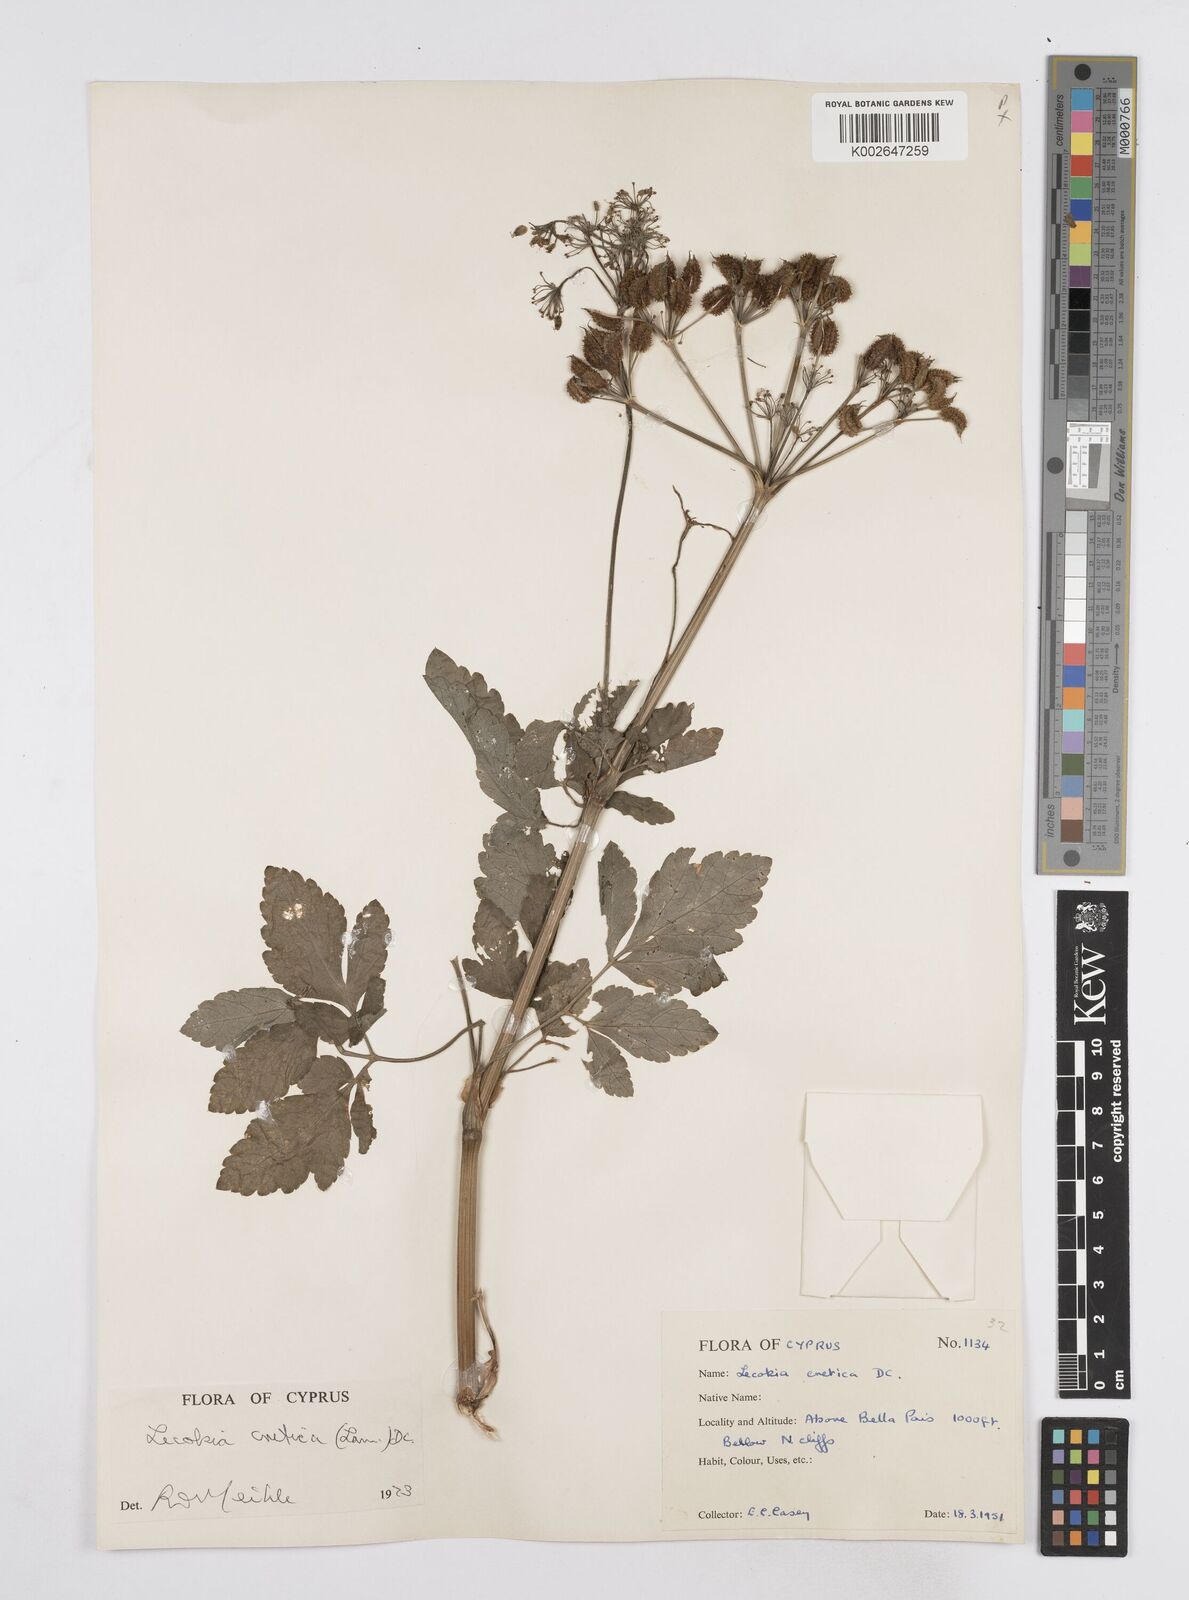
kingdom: Plantae
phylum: Tracheophyta
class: Magnoliopsida
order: Apiales
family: Apiaceae
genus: Lecokia
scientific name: Lecokia cretica
